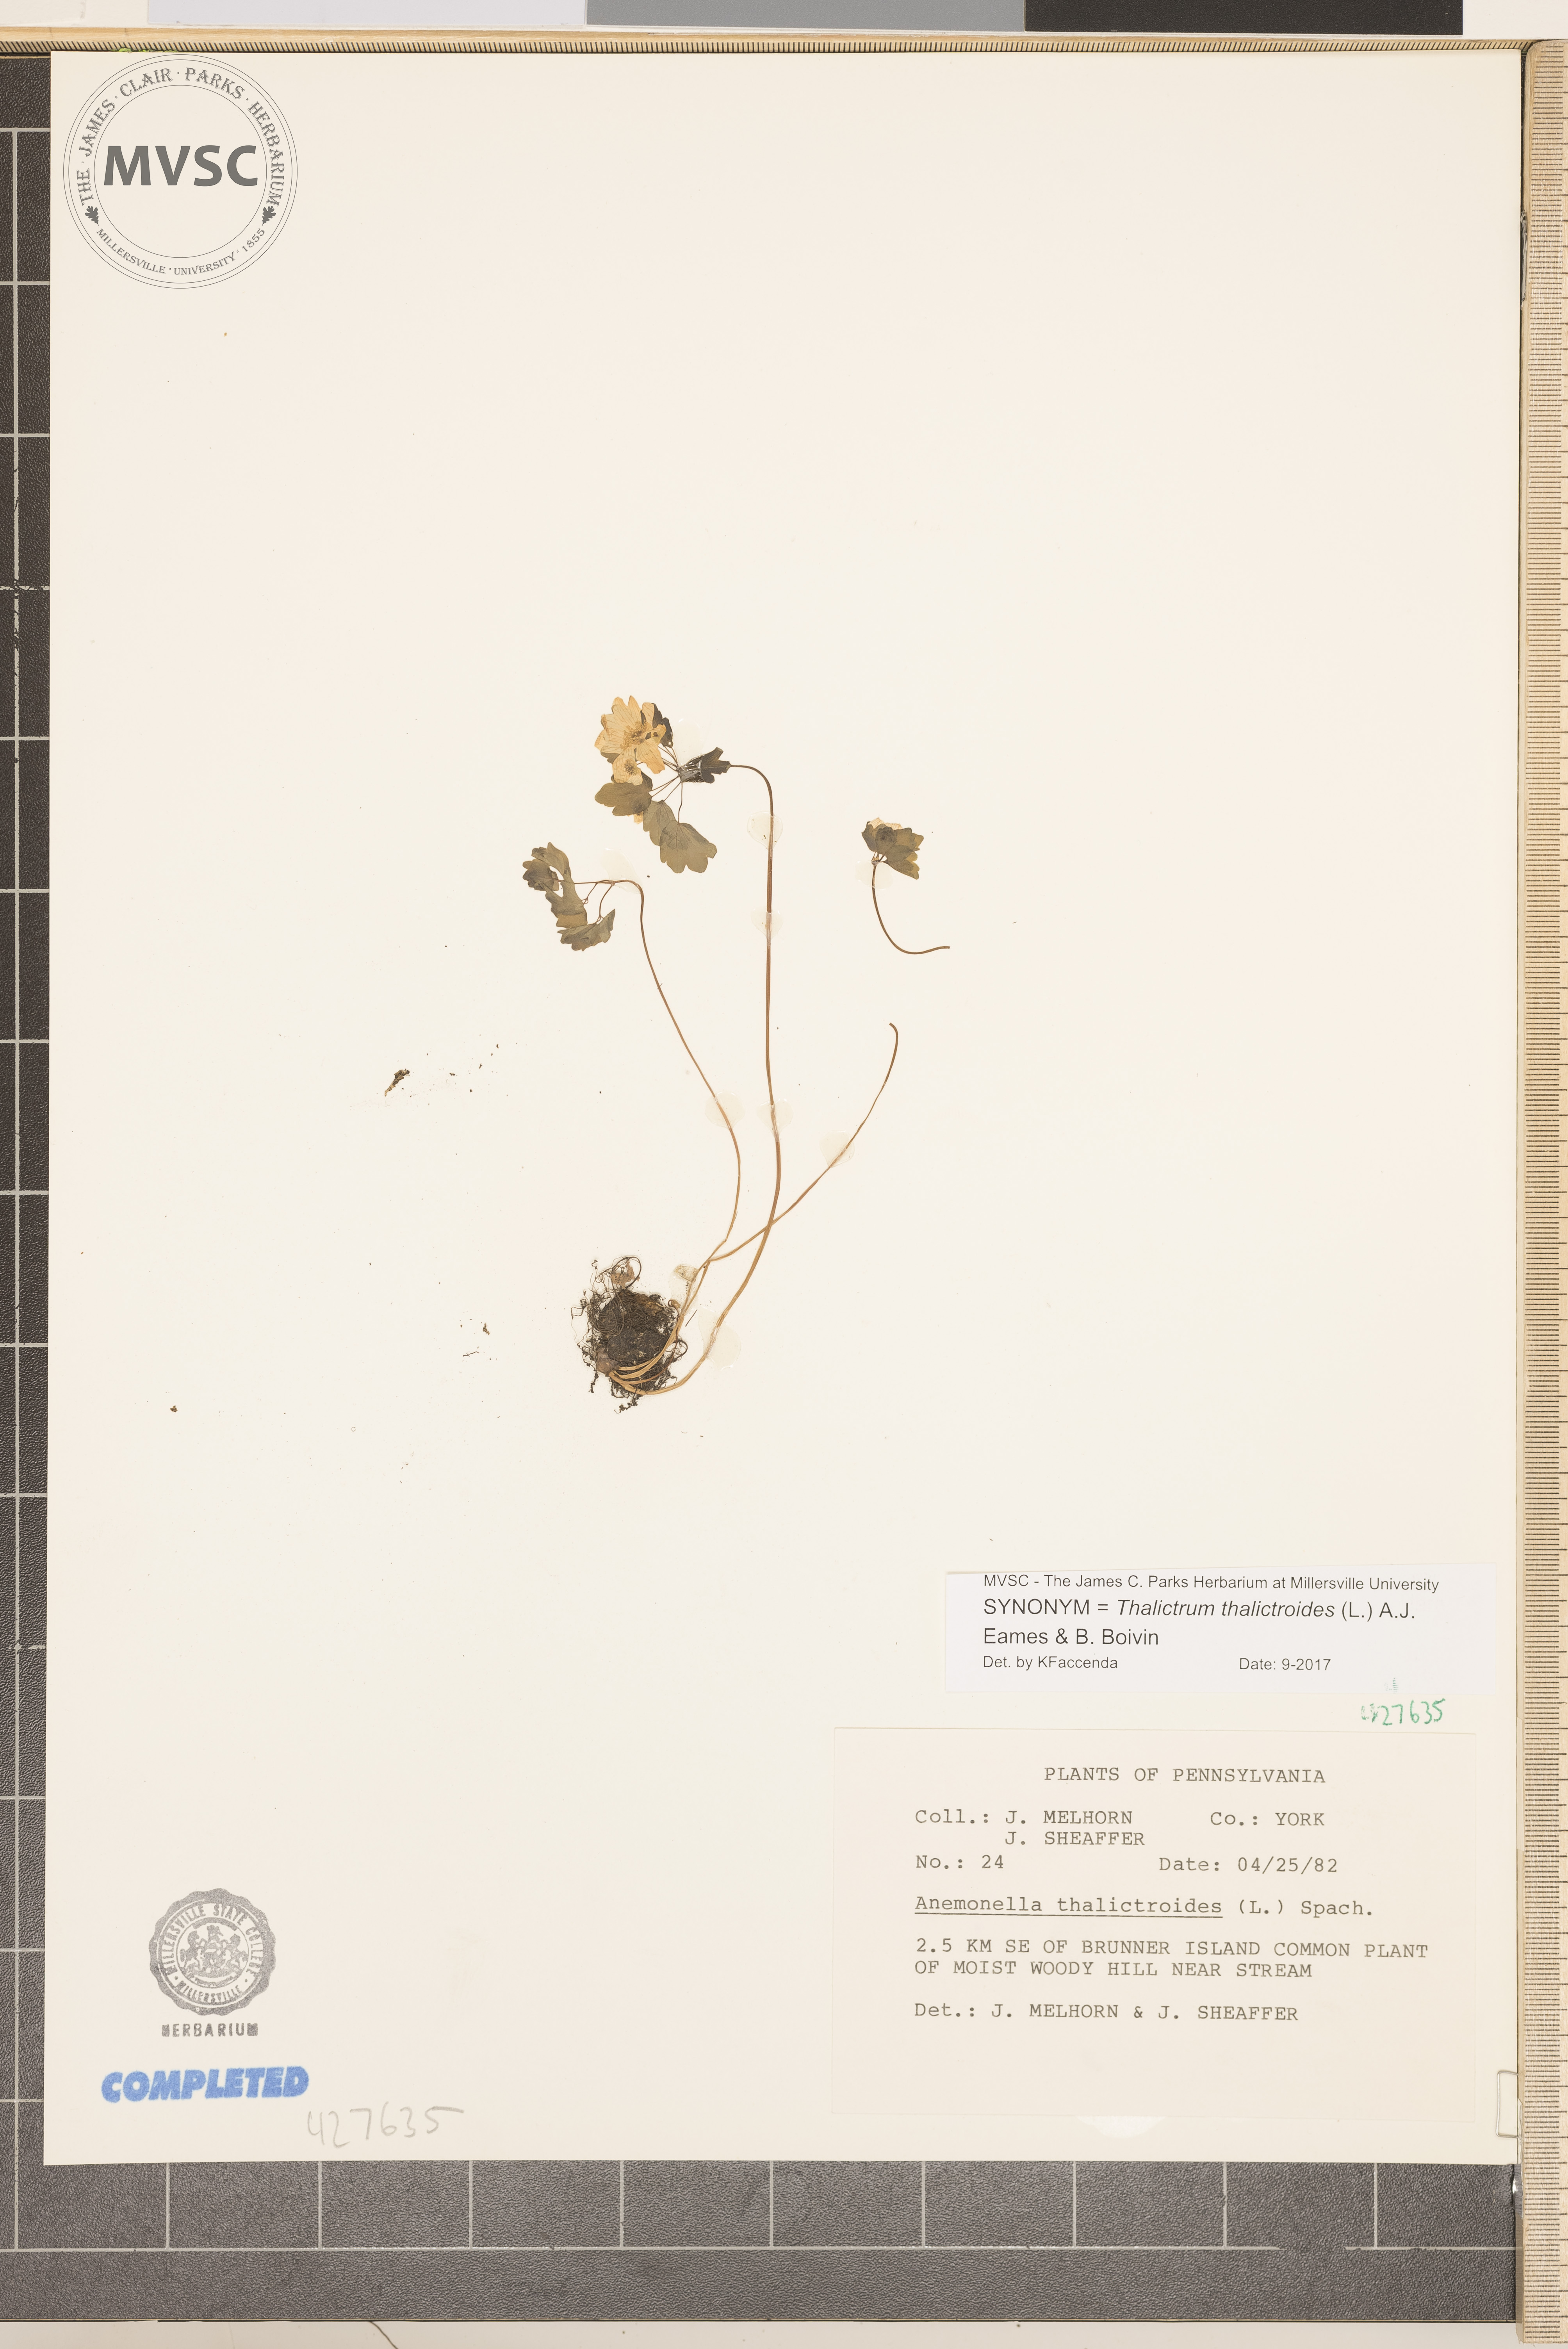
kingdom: Plantae
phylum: Tracheophyta
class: Magnoliopsida
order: Ranunculales
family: Ranunculaceae
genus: Thalictrum
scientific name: Thalictrum thalictroides
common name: Rue anemone
